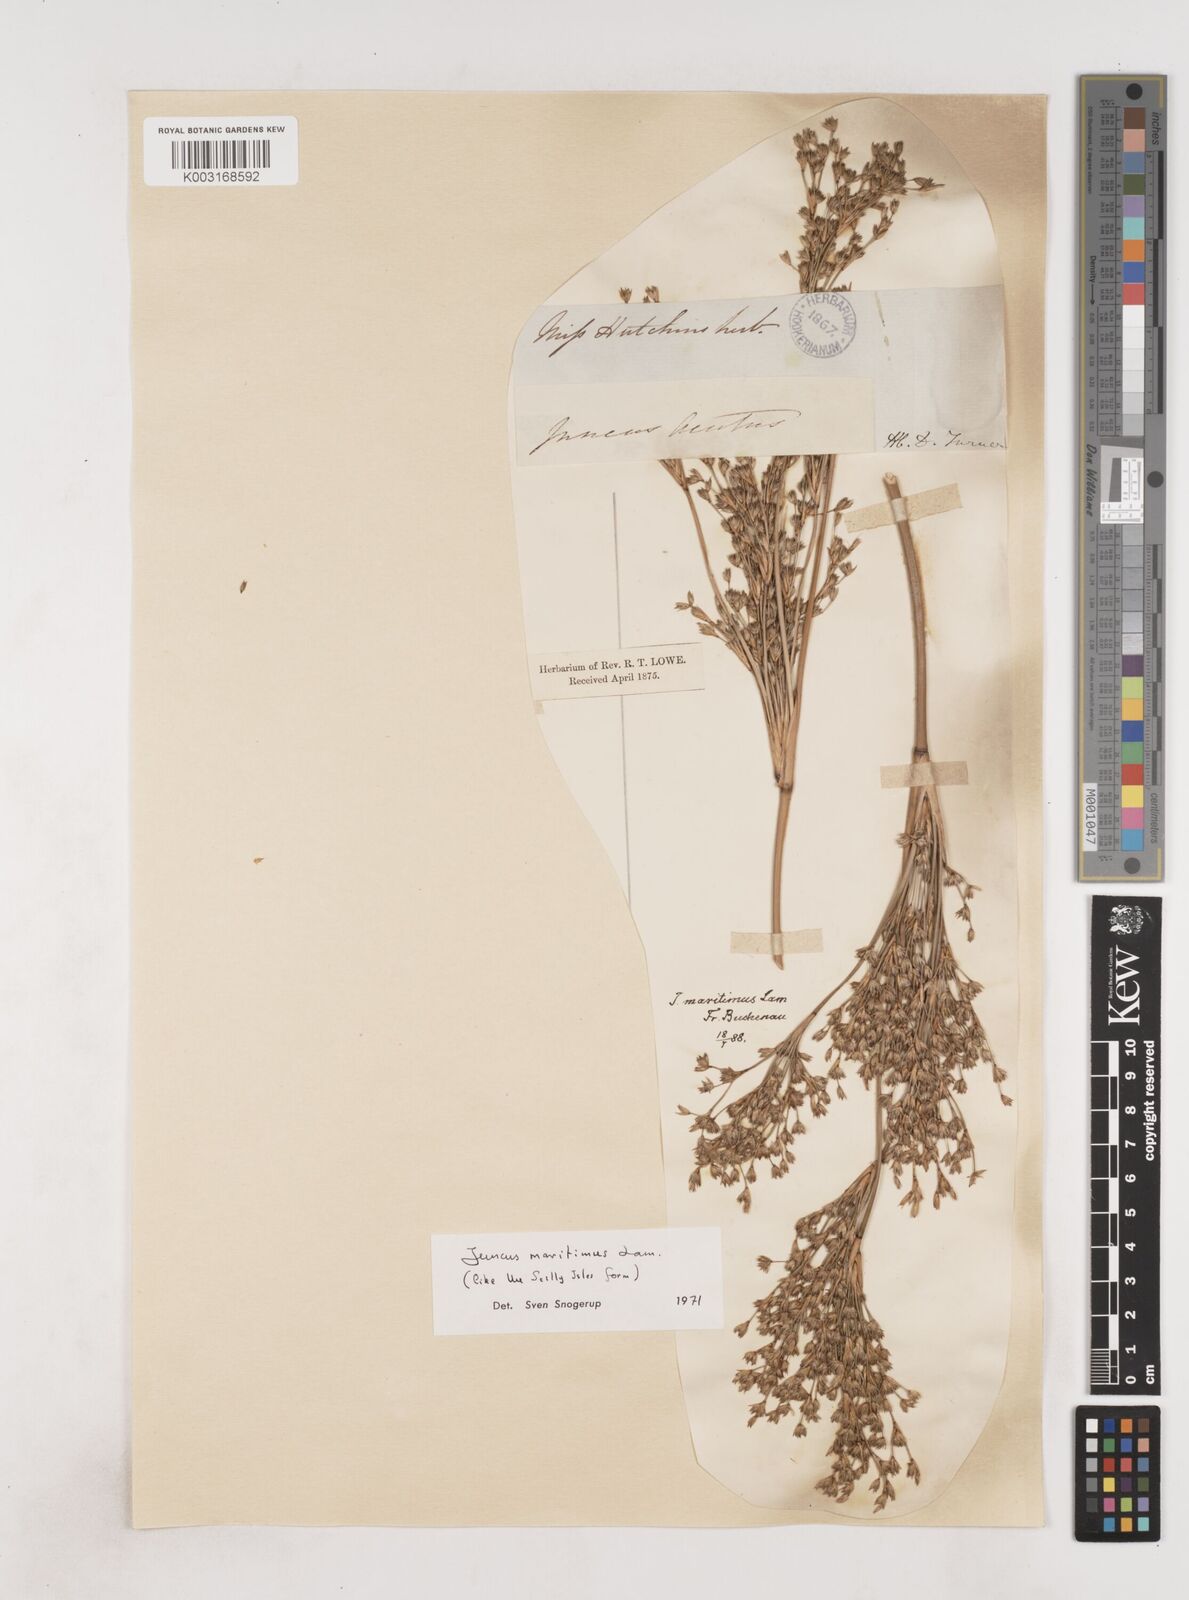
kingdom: Plantae
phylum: Tracheophyta
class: Liliopsida
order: Poales
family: Juncaceae
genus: Juncus
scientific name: Juncus maritimus
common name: Sea rush
